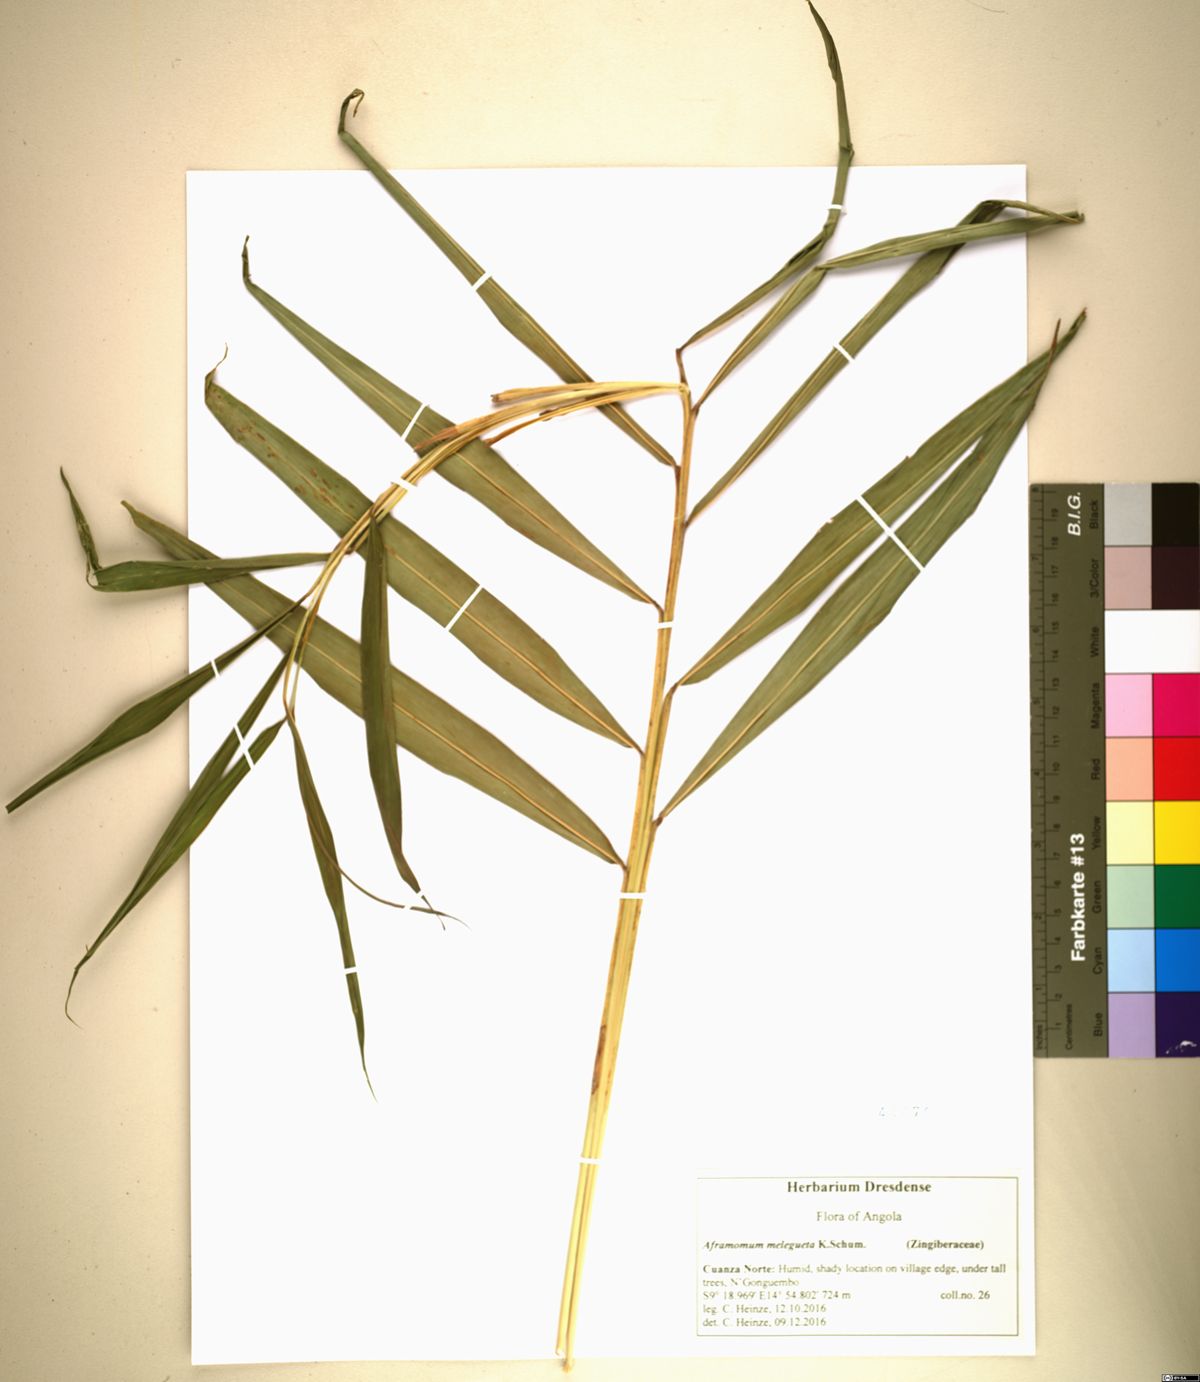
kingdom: Plantae
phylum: Tracheophyta
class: Liliopsida
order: Zingiberales
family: Zingiberaceae
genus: Aframomum
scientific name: Aframomum melegueta
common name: Grains of paradise
